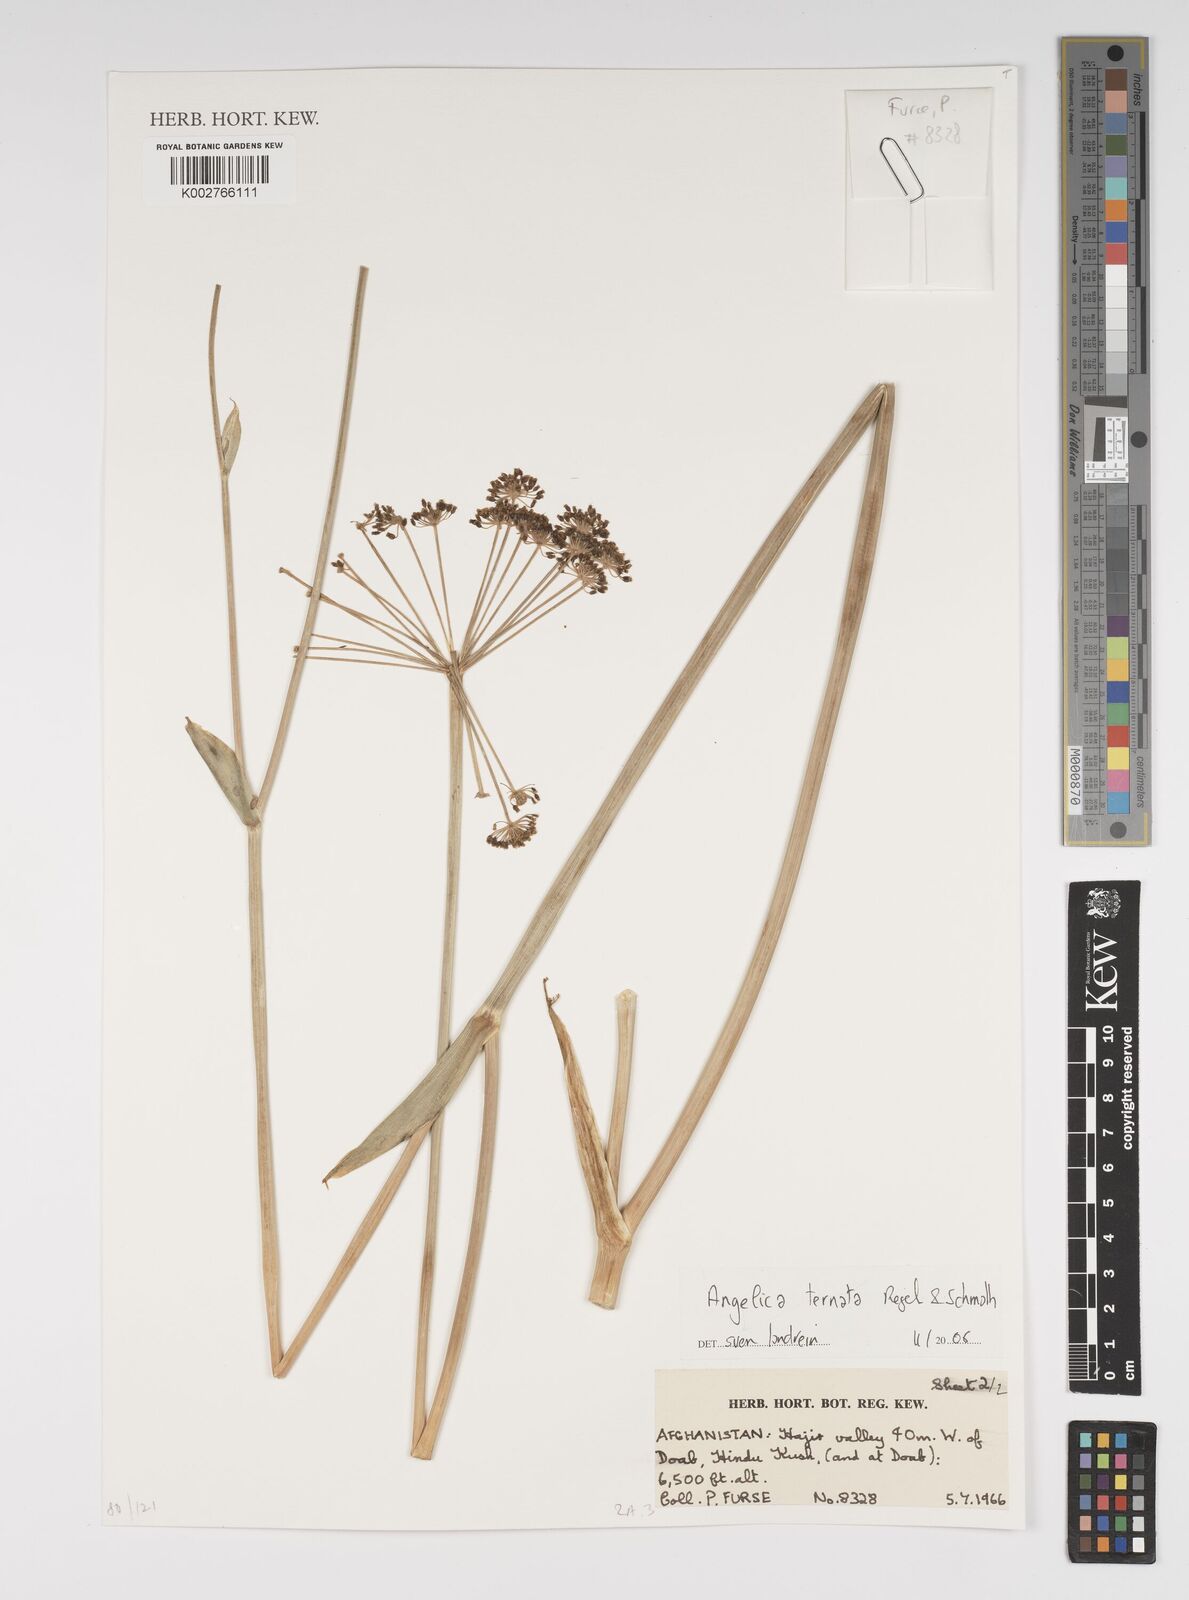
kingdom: Plantae
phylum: Tracheophyta
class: Magnoliopsida
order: Apiales
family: Apiaceae
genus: Angelica
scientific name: Angelica ternata
